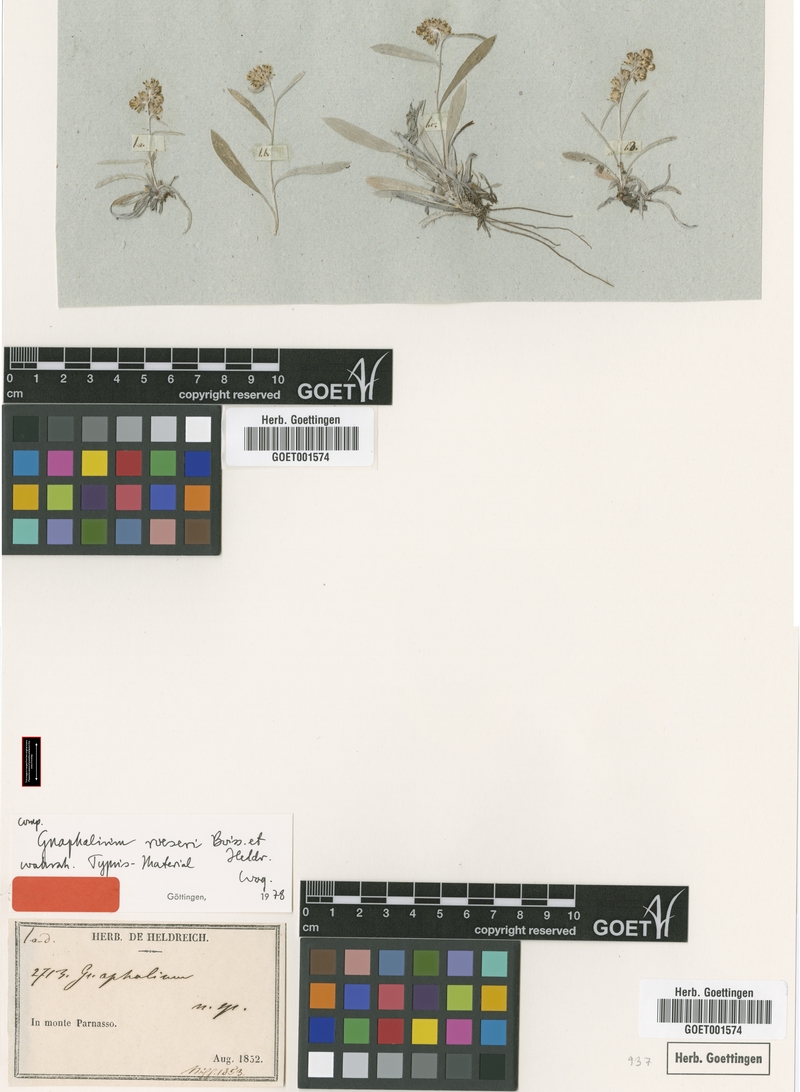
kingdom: Plantae
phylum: Tracheophyta
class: Magnoliopsida
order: Asterales
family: Asteraceae
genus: Omalotheca
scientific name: Omalotheca roeseri
